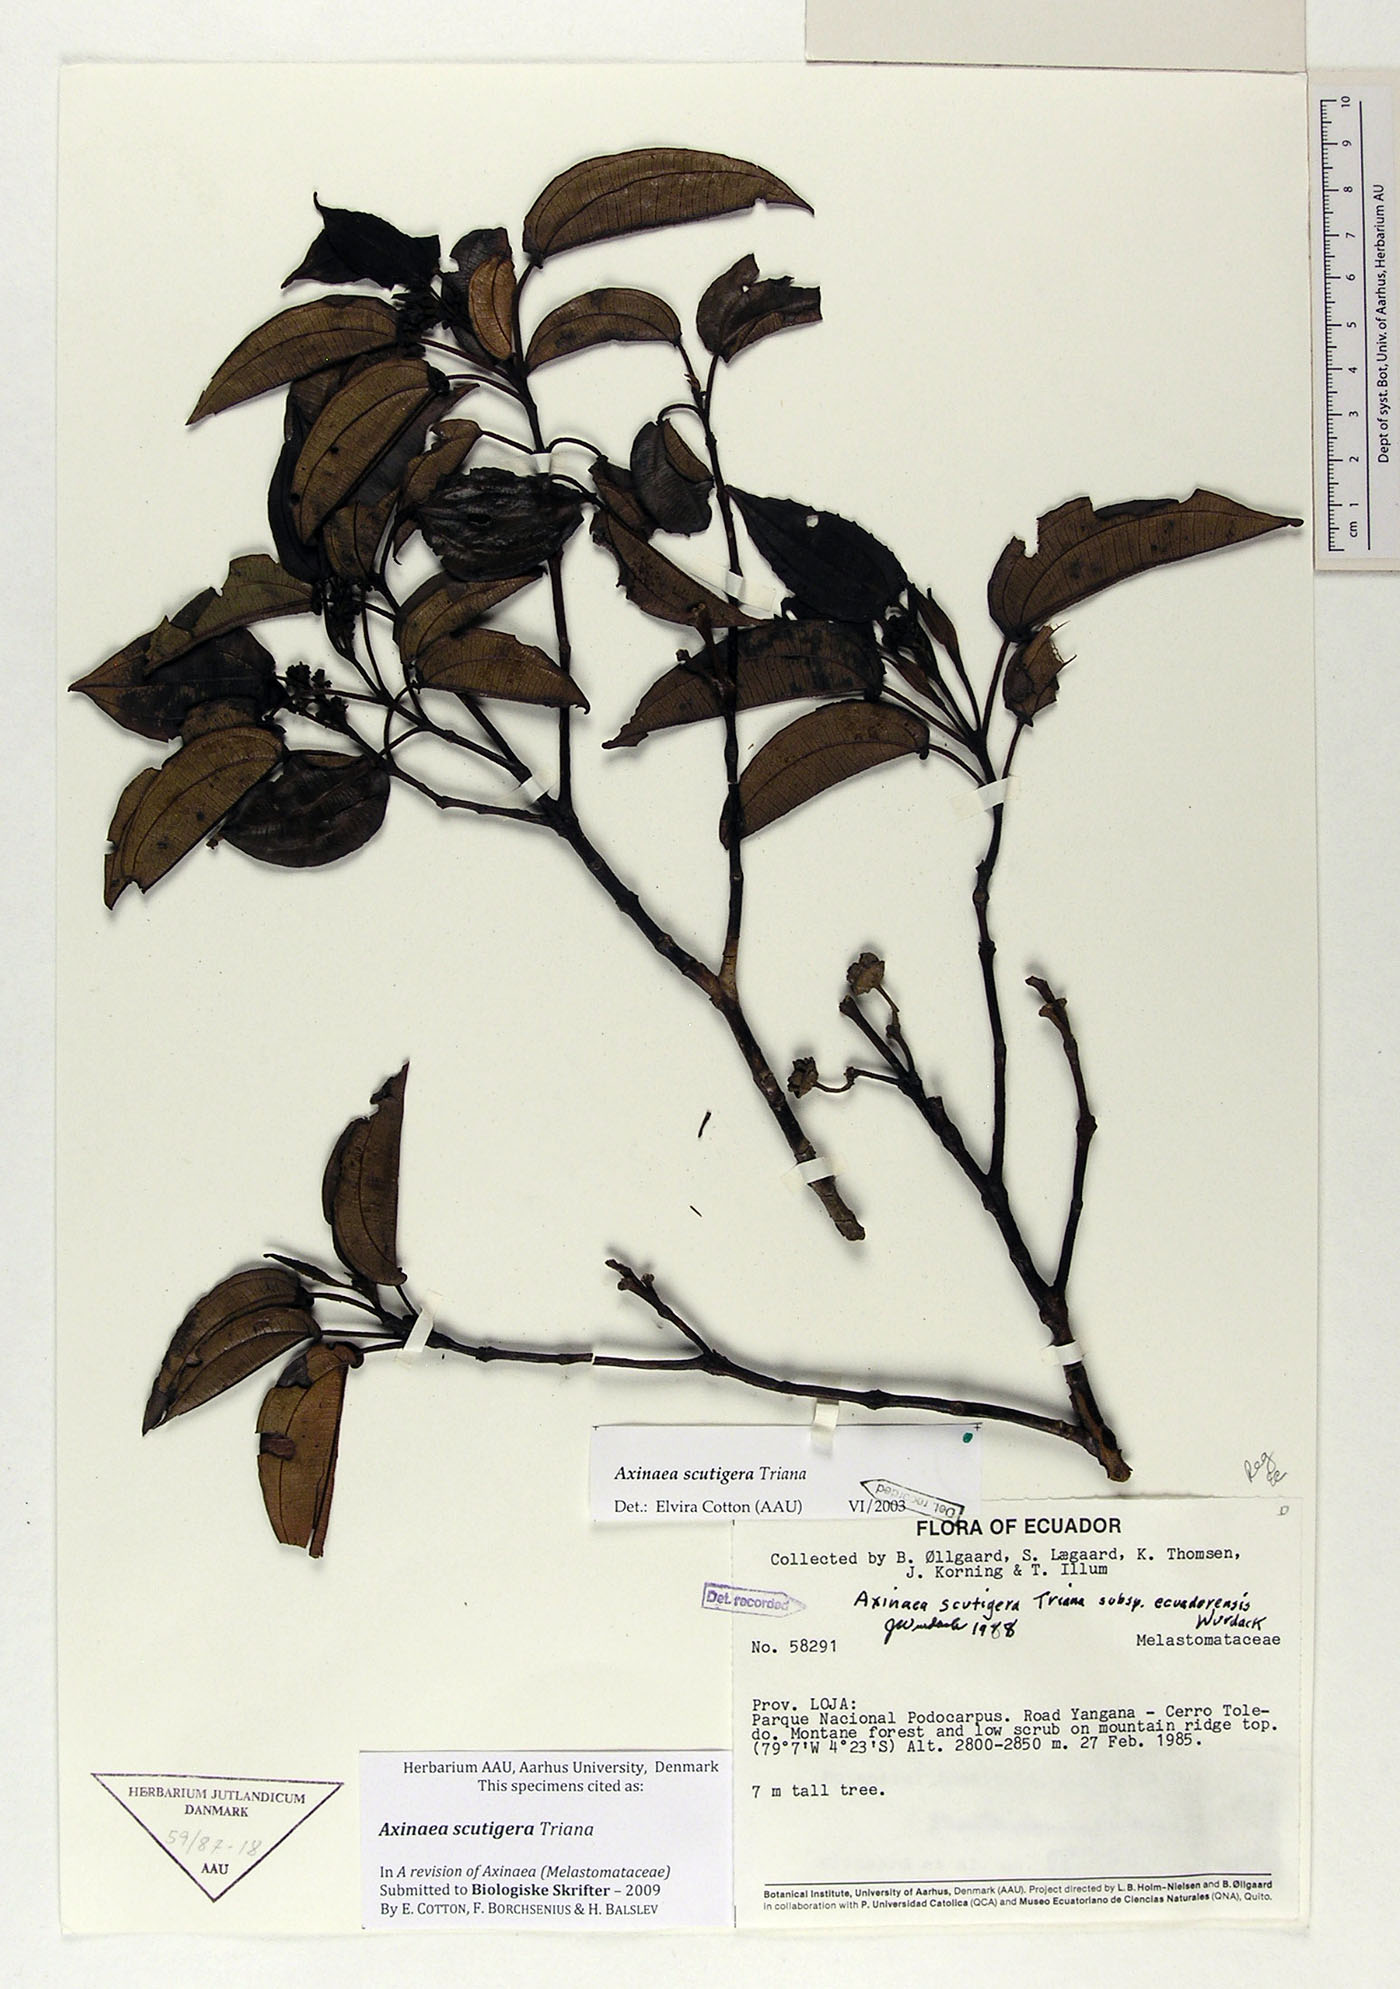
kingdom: Plantae
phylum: Tracheophyta
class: Magnoliopsida
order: Myrtales
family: Melastomataceae
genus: Axinaea
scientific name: Axinaea scutigera
